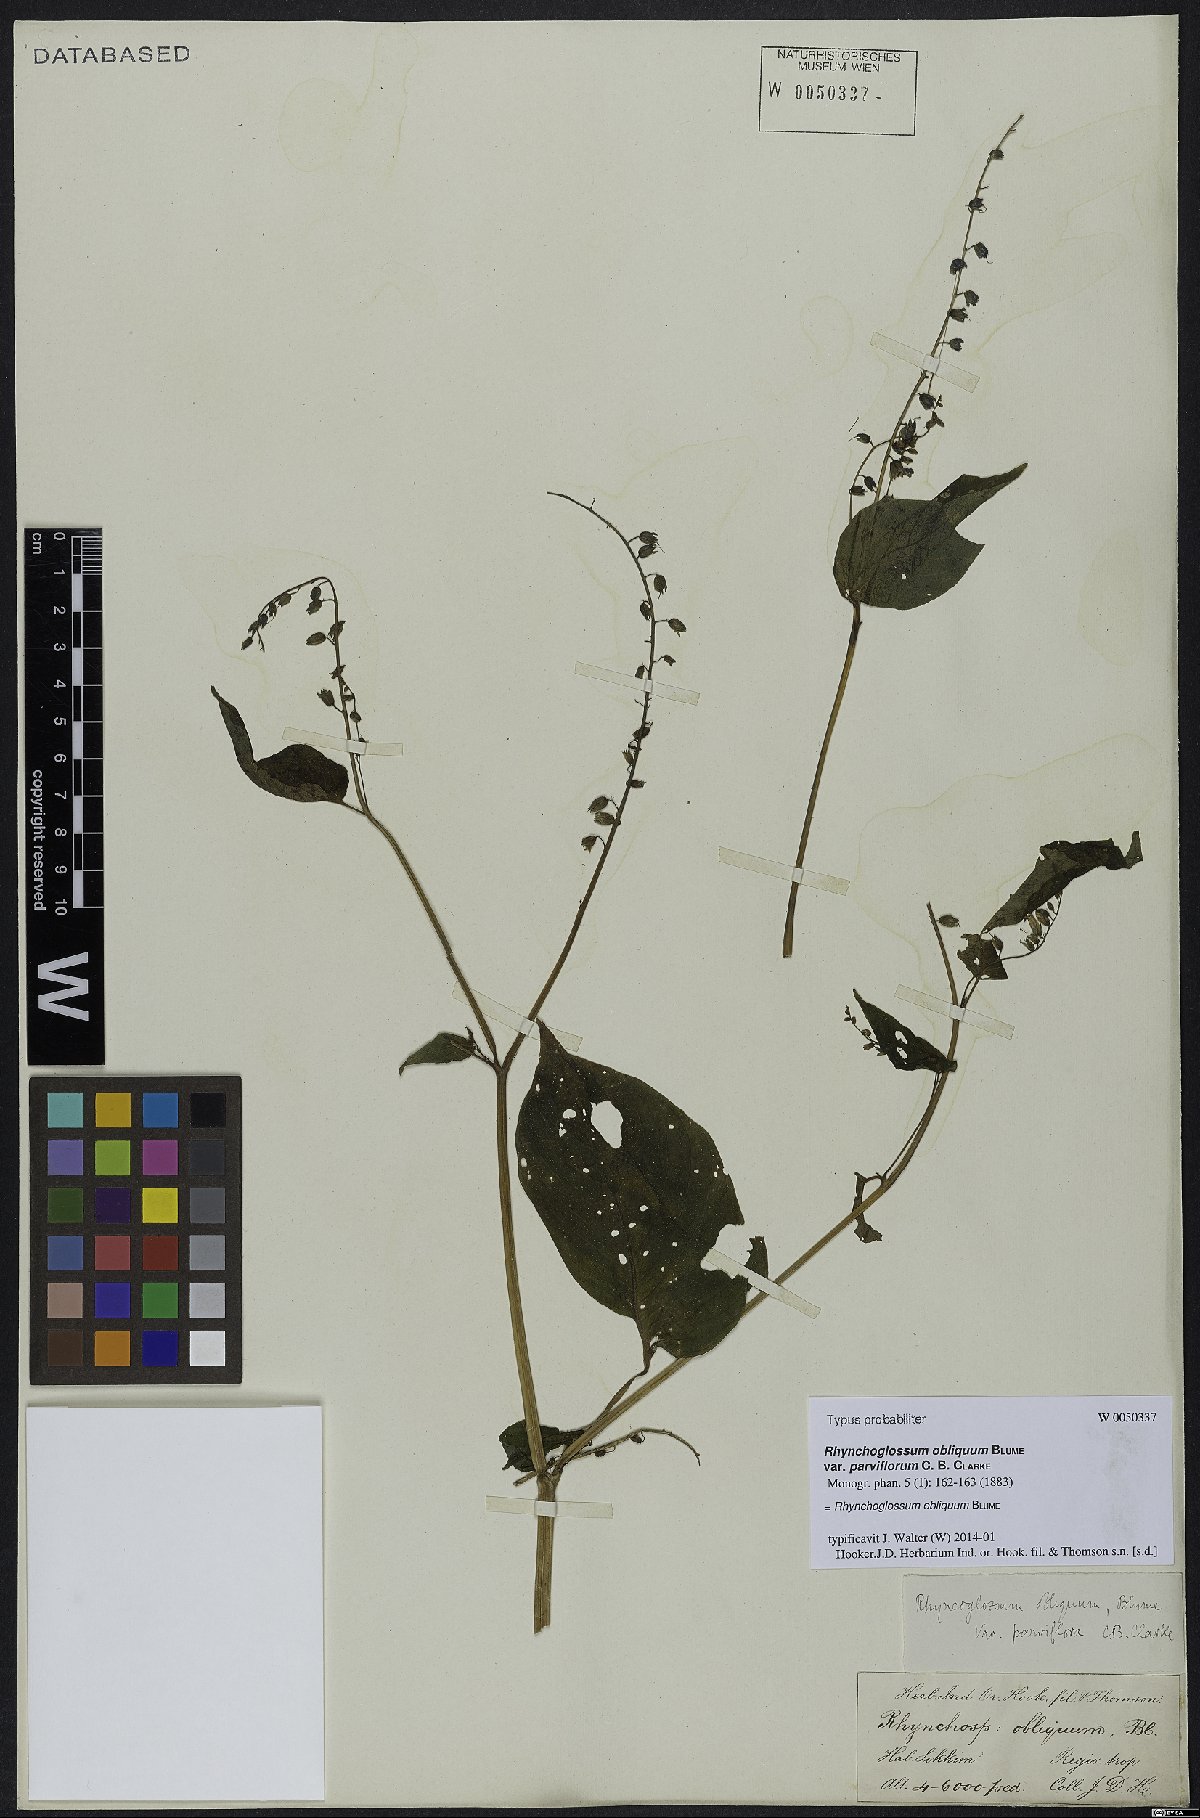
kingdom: Plantae
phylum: Tracheophyta
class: Magnoliopsida
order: Lamiales
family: Gesneriaceae
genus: Rhynchoglossum
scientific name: Rhynchoglossum obliquum
